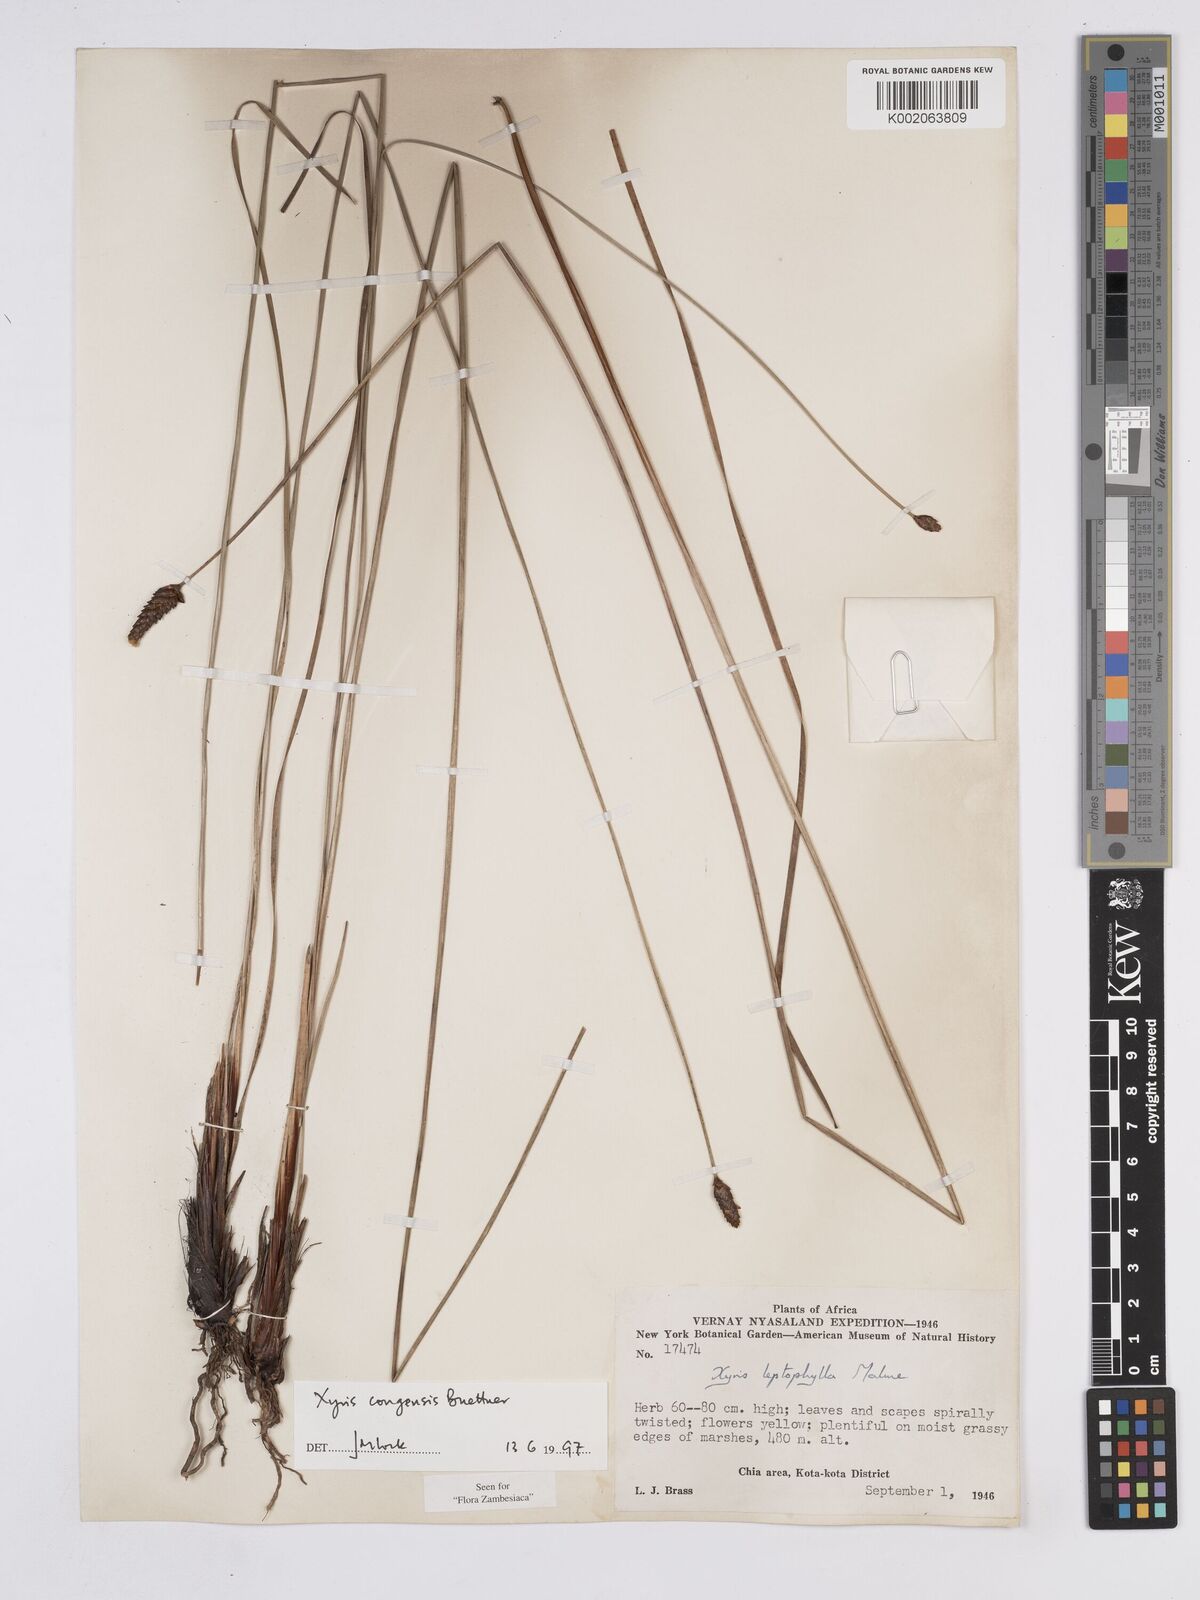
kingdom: Plantae
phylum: Tracheophyta
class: Liliopsida
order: Poales
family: Xyridaceae
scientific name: Xyridaceae
